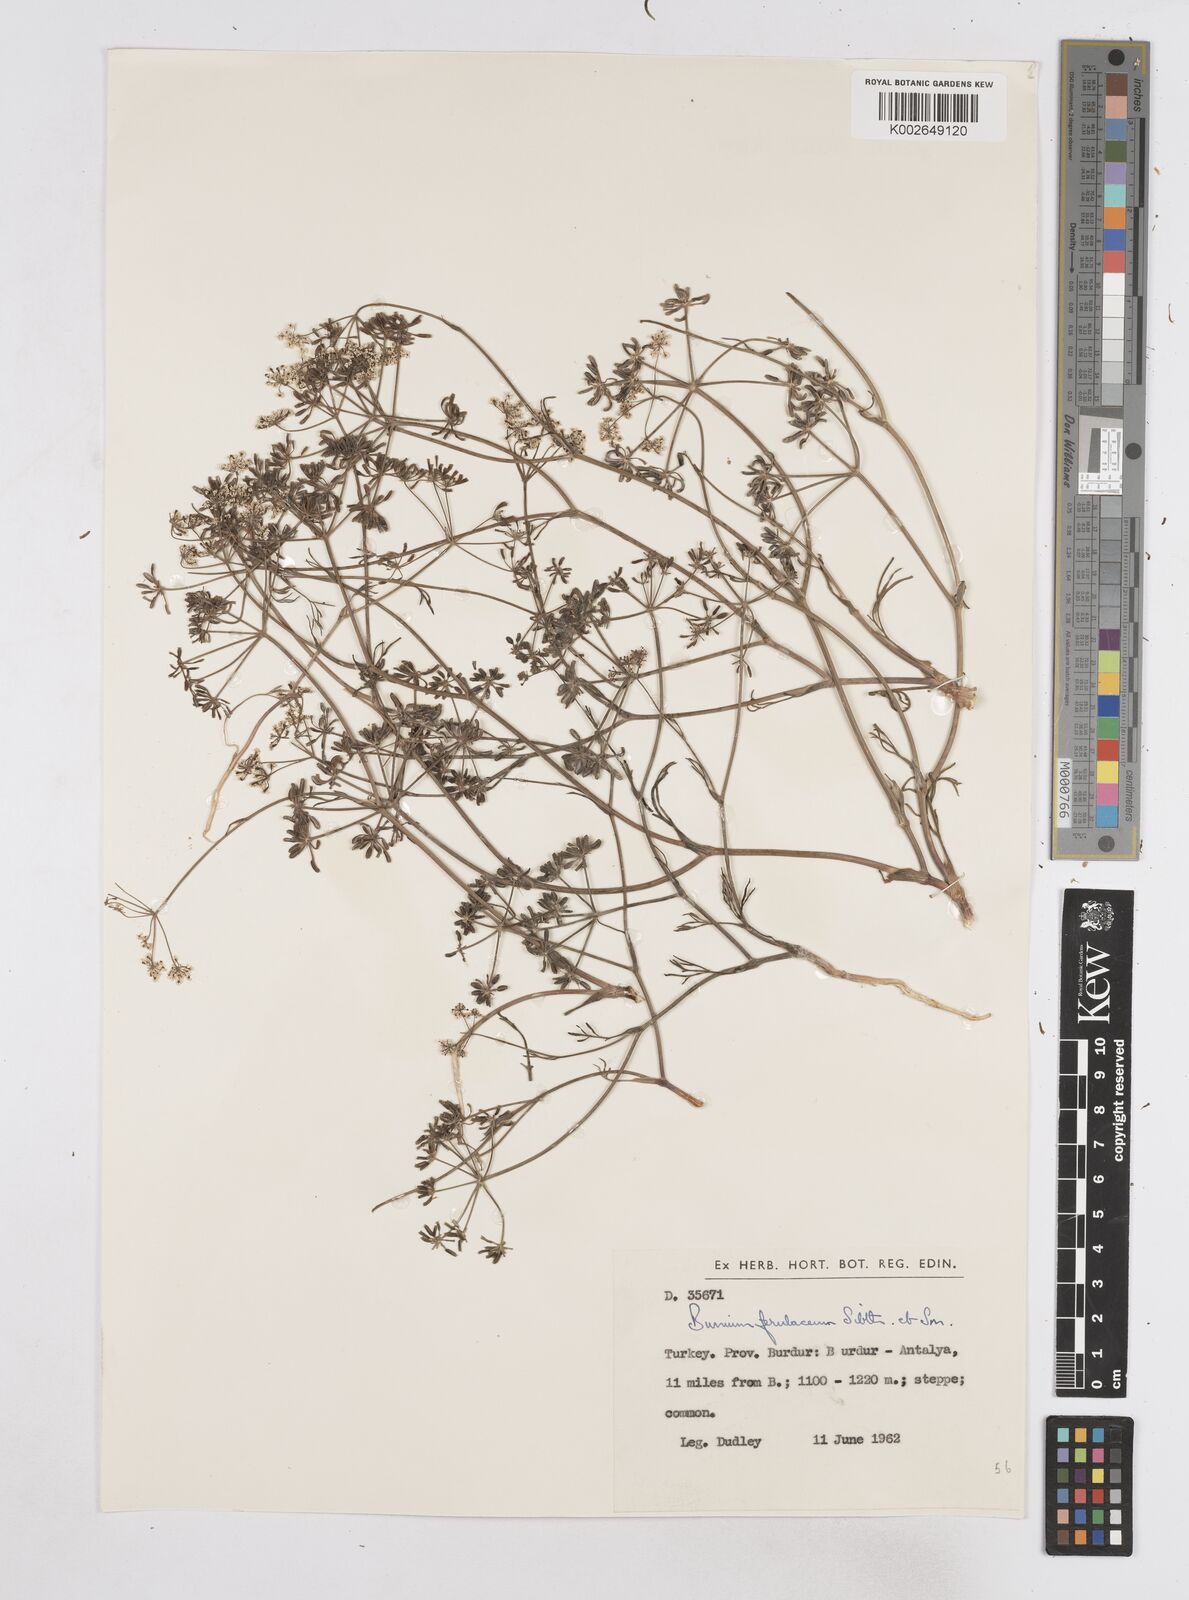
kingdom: Plantae
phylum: Tracheophyta
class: Magnoliopsida
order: Apiales
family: Apiaceae
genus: Bunium
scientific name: Bunium ferulaceum
